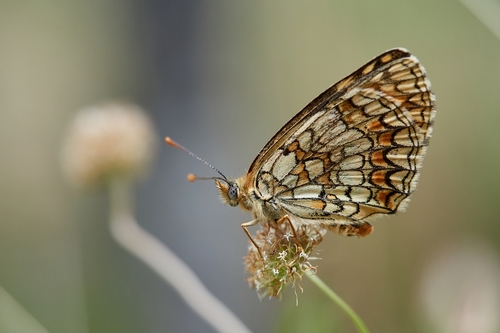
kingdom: Animalia
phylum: Arthropoda
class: Insecta
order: Lepidoptera
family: Nymphalidae
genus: Mellicta
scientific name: Mellicta athalia
